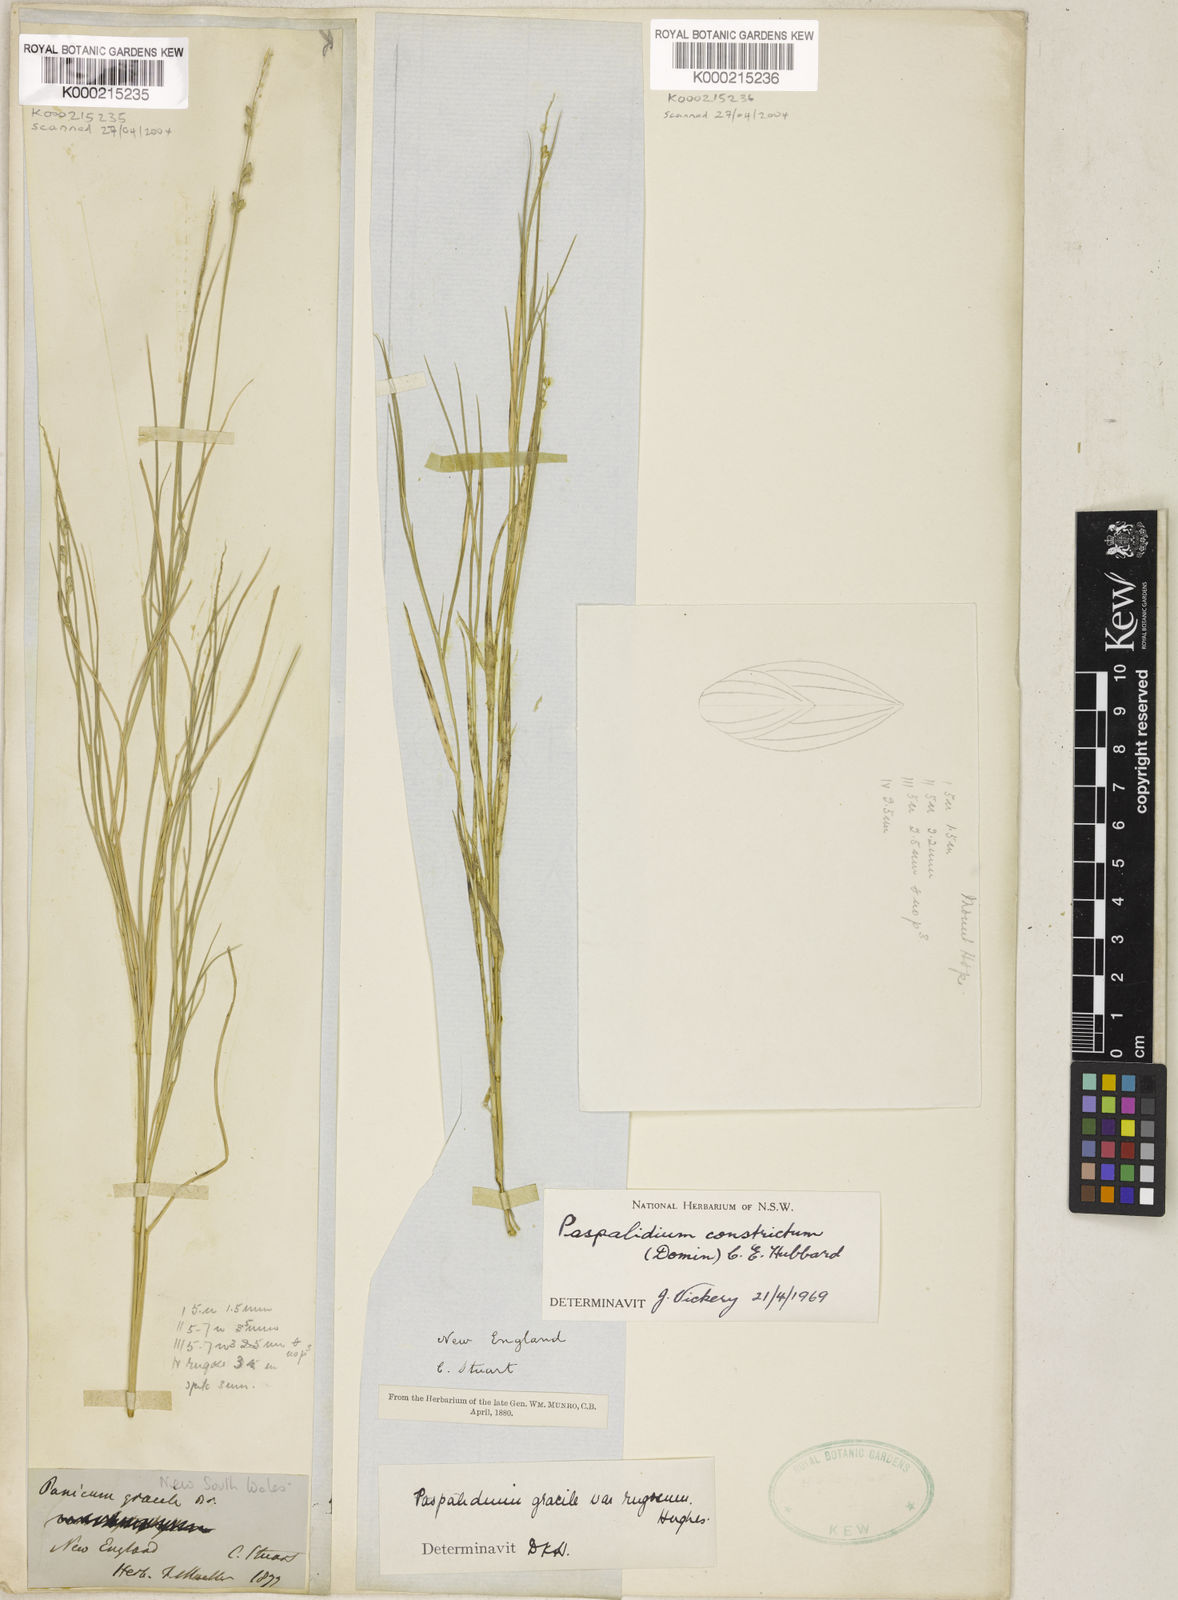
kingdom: Plantae
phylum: Tracheophyta
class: Liliopsida
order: Poales
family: Poaceae
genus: Setaria
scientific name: Setaria constricta
